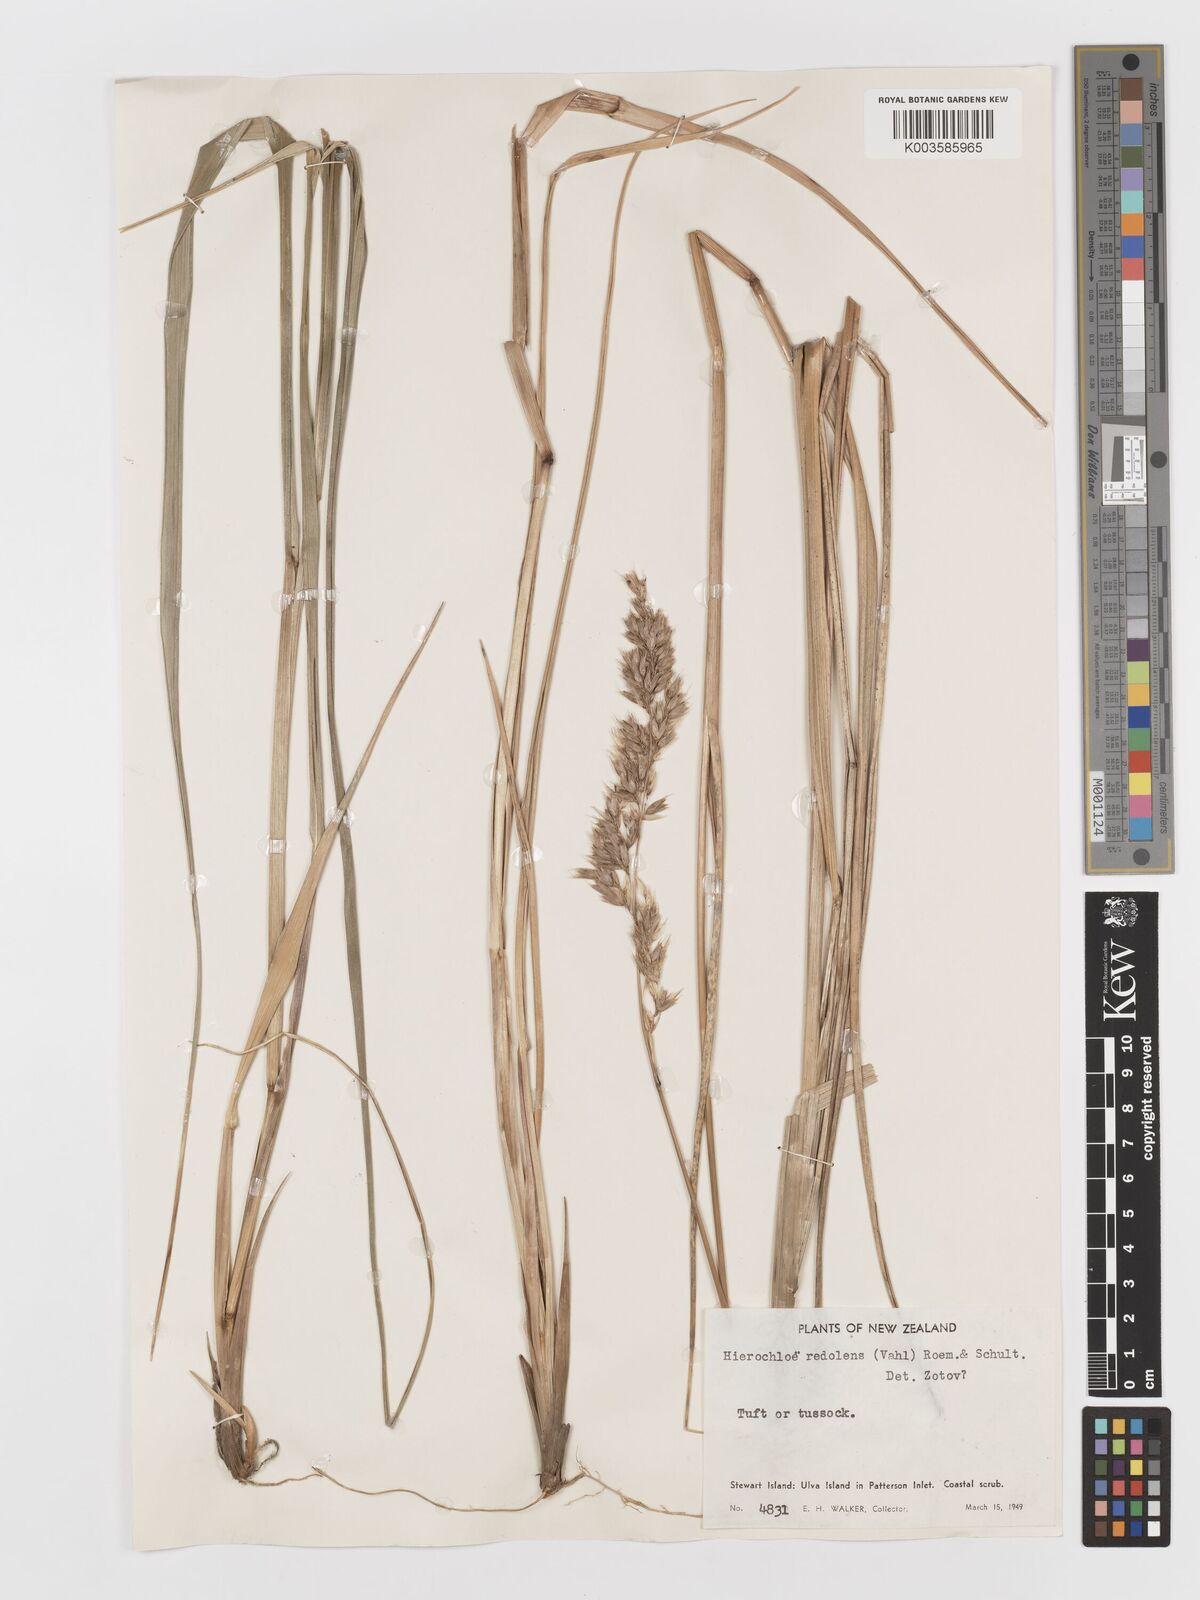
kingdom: Plantae
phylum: Tracheophyta
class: Liliopsida
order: Poales
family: Poaceae
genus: Anthoxanthum
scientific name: Anthoxanthum redolens
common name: Sweet holy grass
